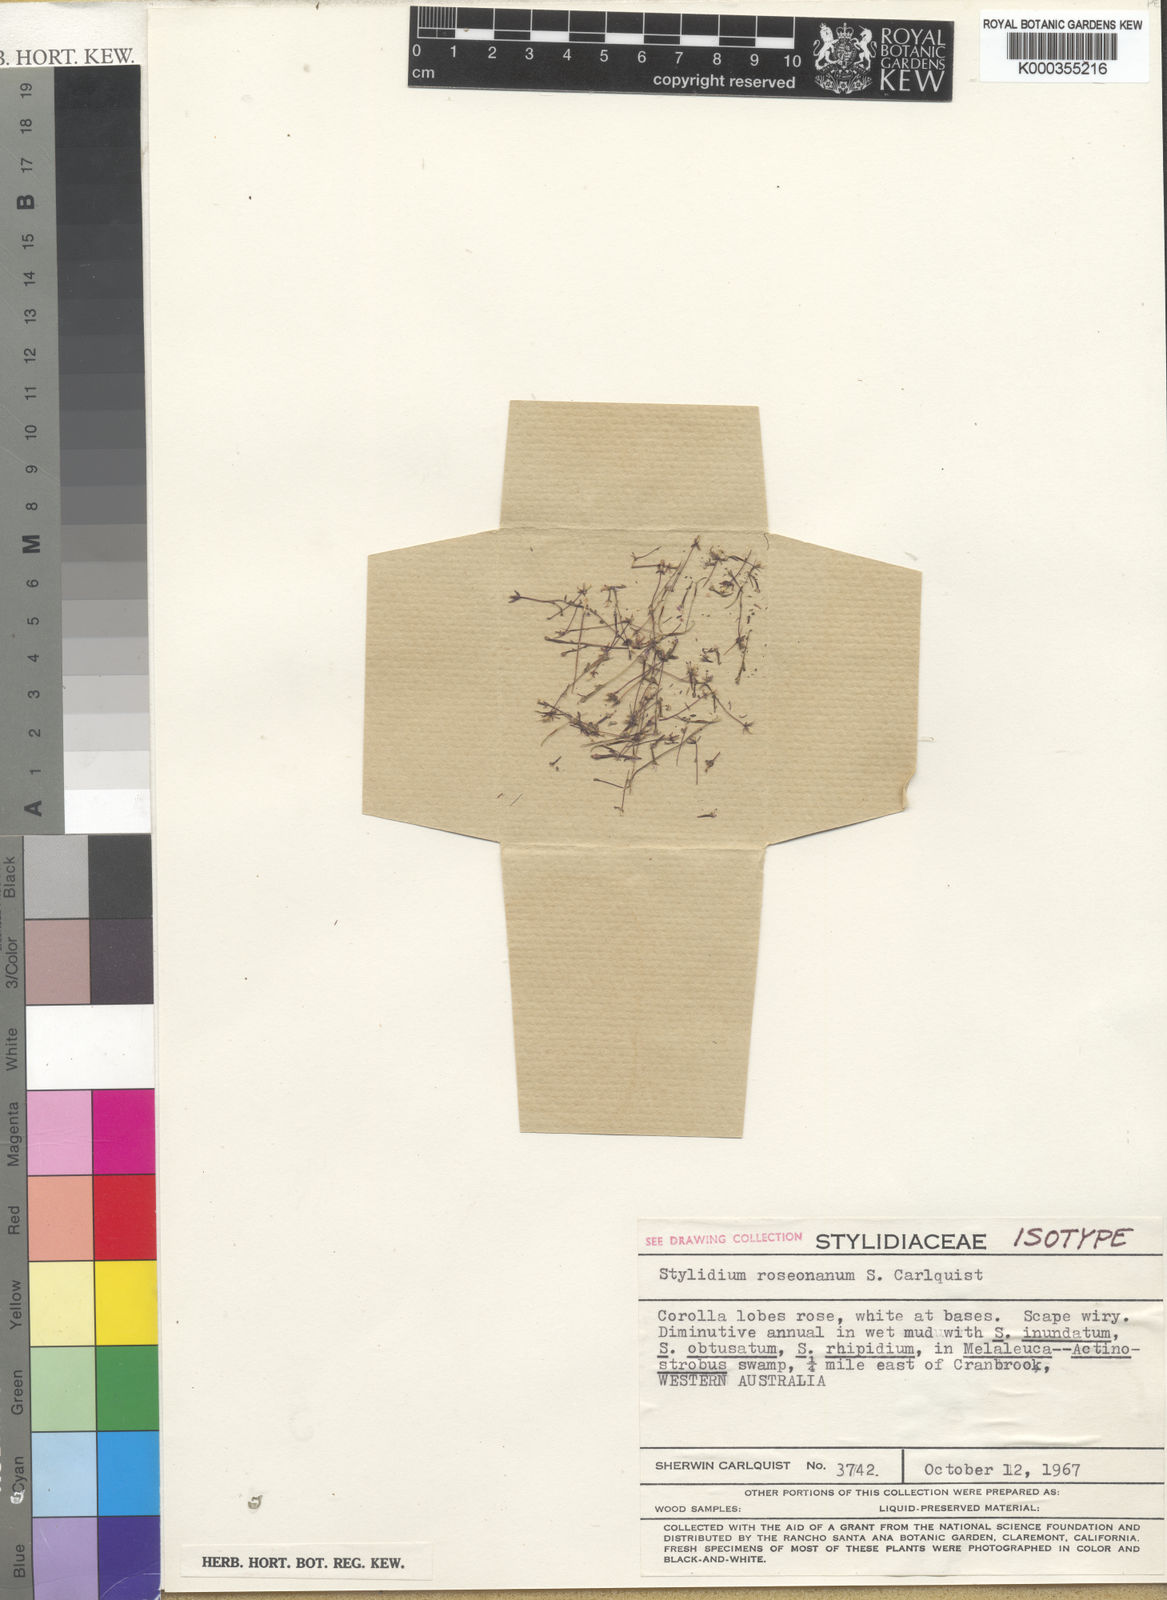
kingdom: Plantae
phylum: Tracheophyta
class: Magnoliopsida
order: Asterales
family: Stylidiaceae
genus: Stylidium
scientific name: Stylidium roseonanum
